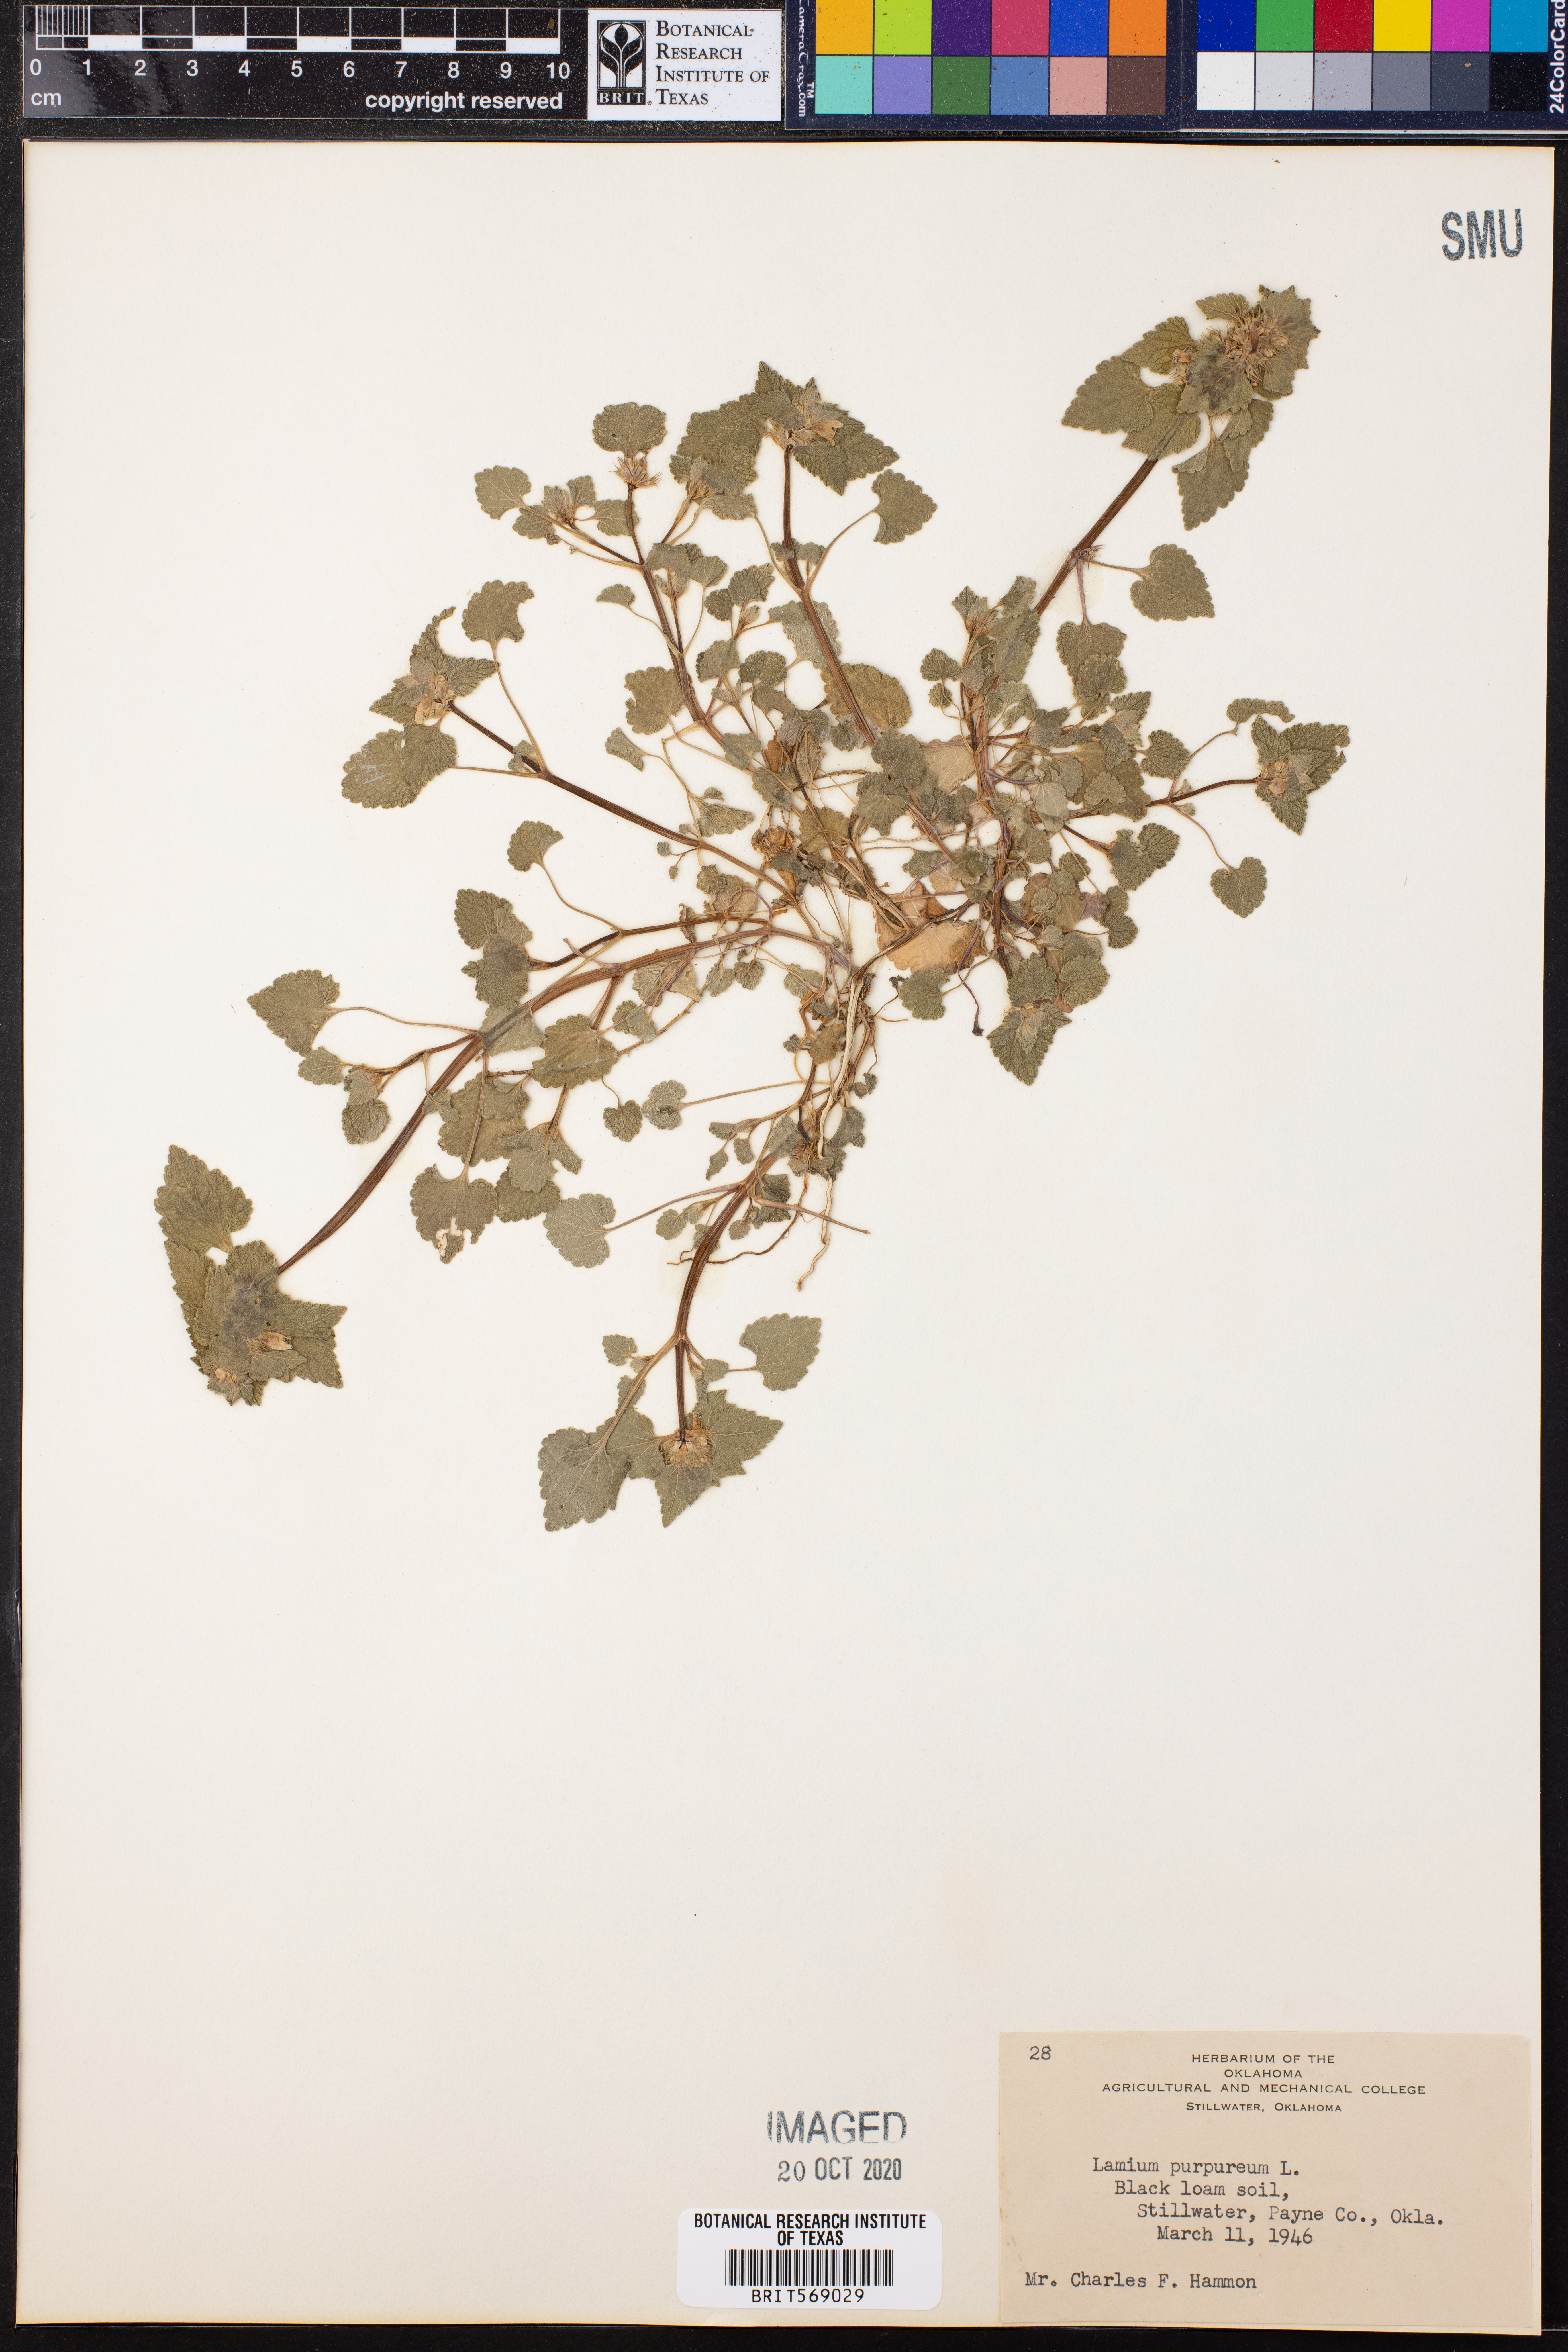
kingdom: Plantae
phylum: Tracheophyta
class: Magnoliopsida
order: Lamiales
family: Lamiaceae
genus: Lamium
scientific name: Lamium purpureum
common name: Red dead-nettle
